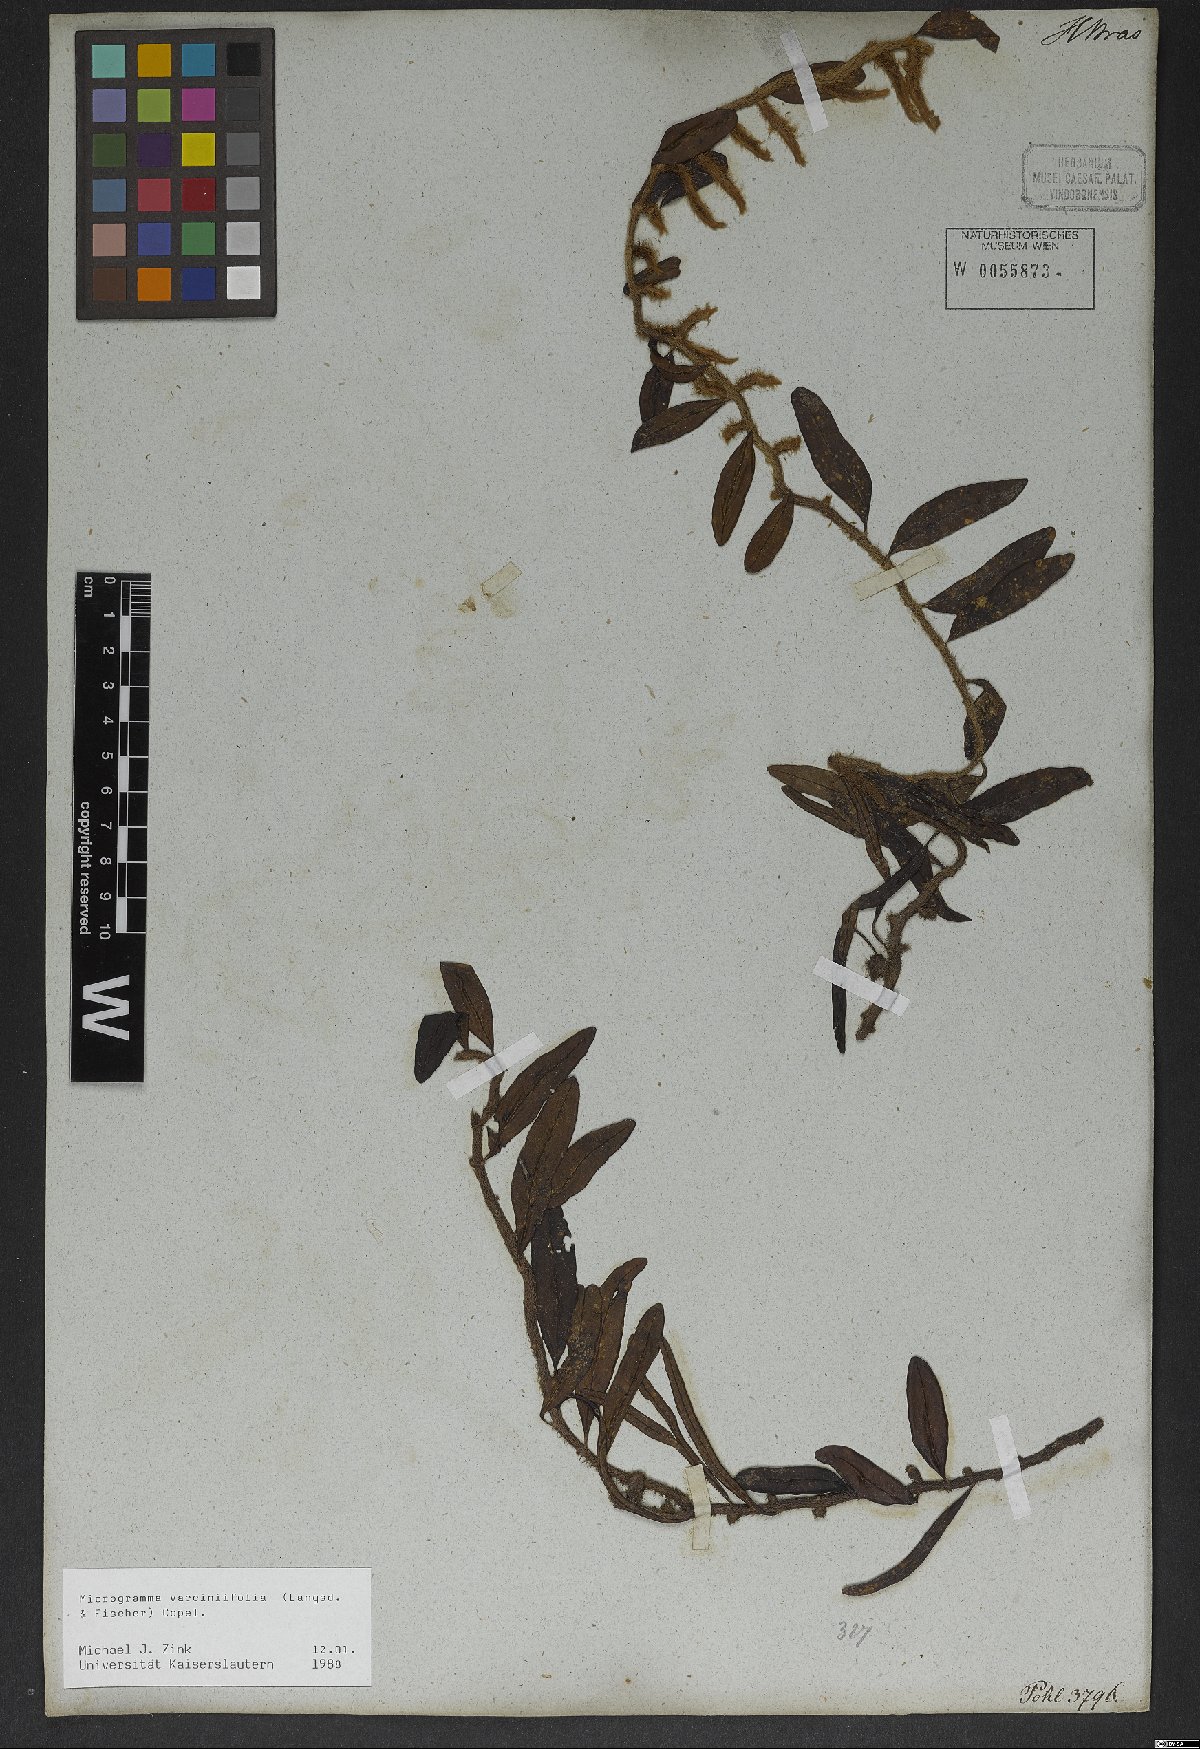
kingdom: Plantae
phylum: Tracheophyta
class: Polypodiopsida
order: Polypodiales
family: Polypodiaceae
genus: Microgramma
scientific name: Microgramma vaccinifolia
